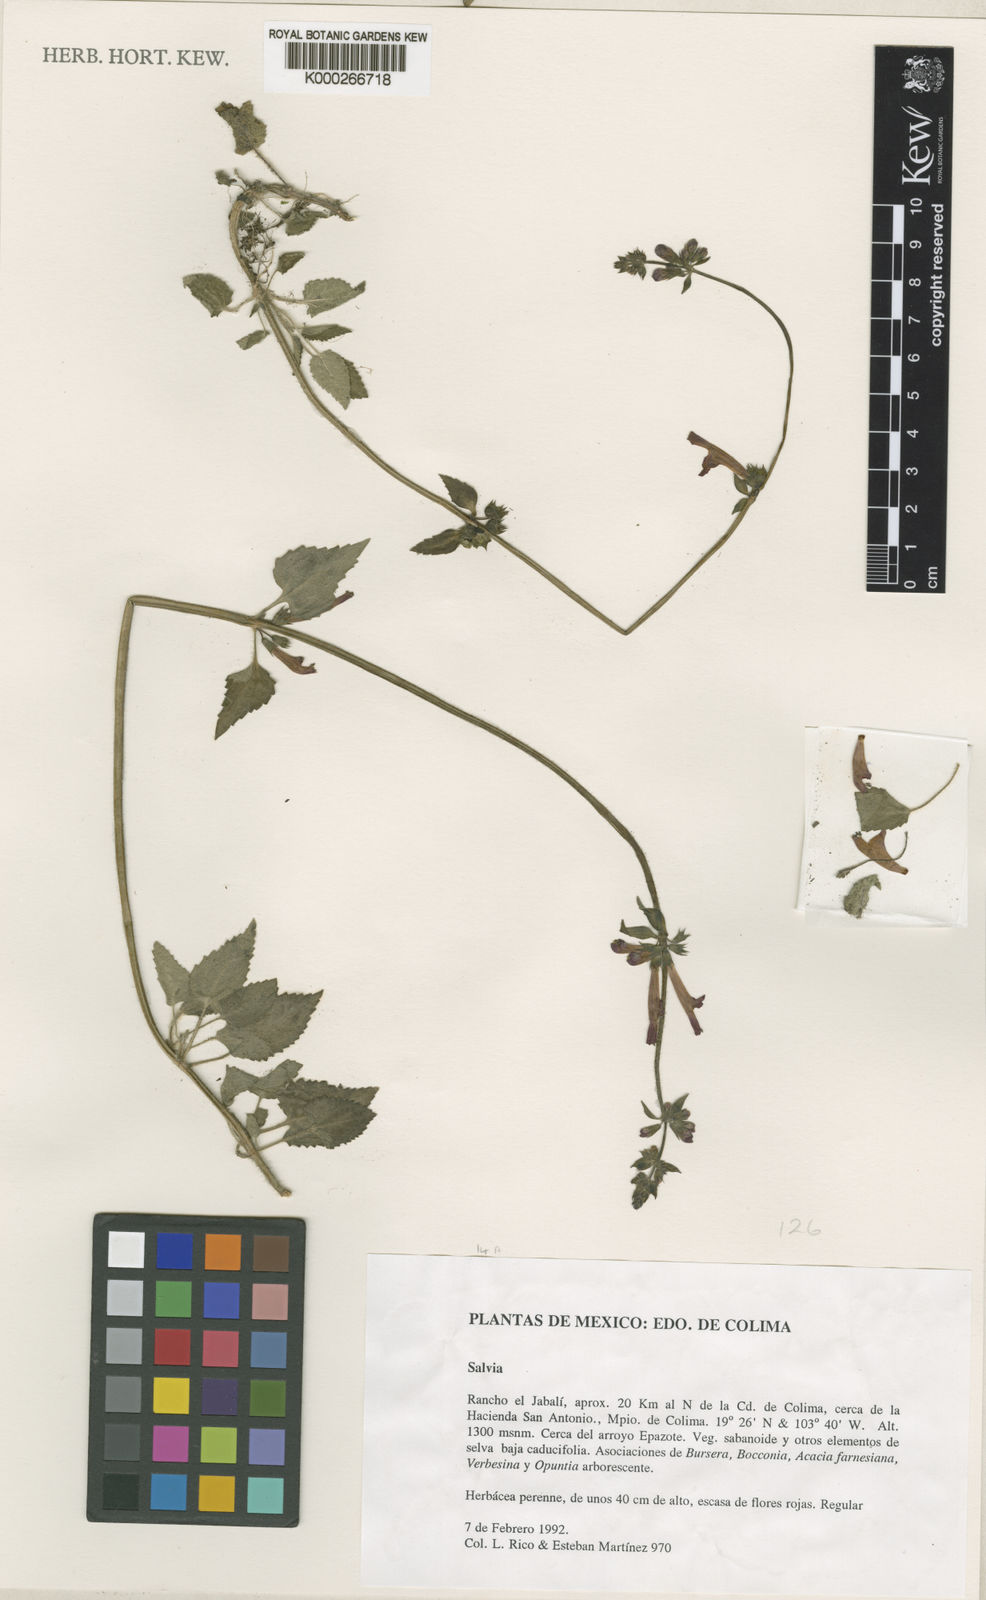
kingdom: Plantae
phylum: Tracheophyta
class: Magnoliopsida
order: Lamiales
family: Lamiaceae
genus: Stachys
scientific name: Stachys
